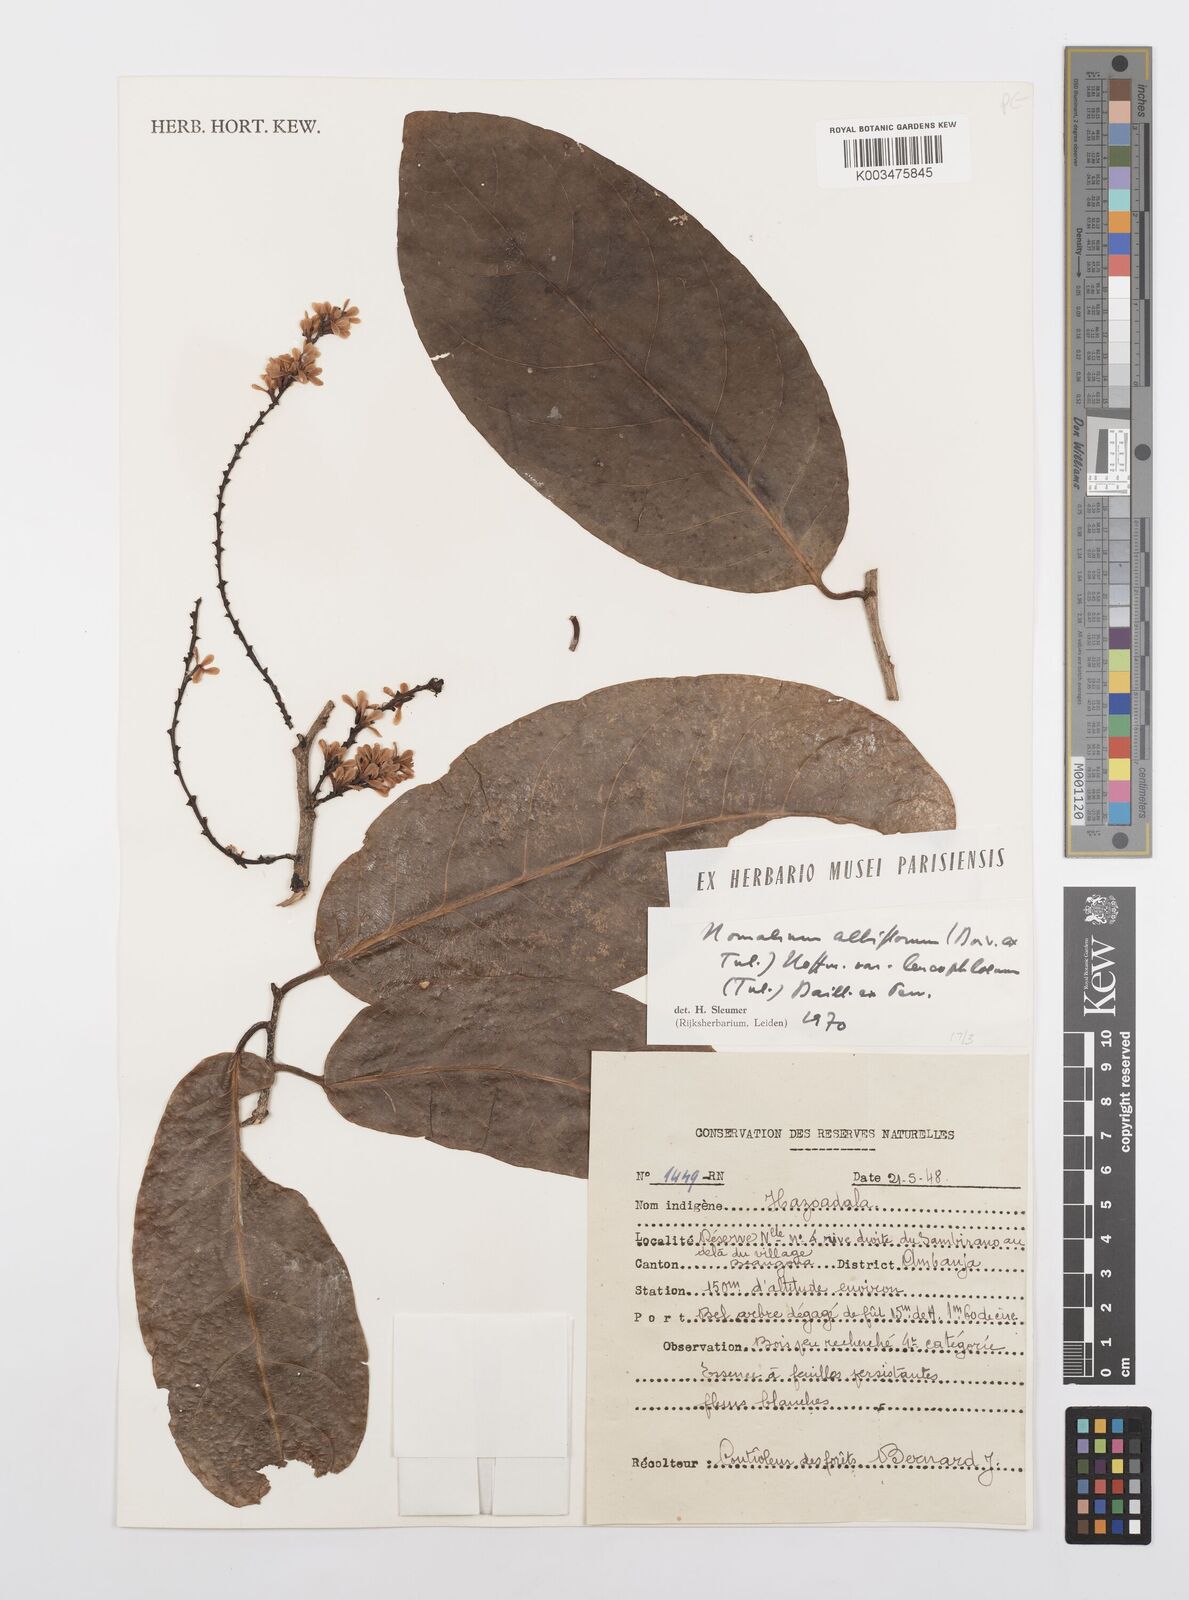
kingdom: Plantae
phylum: Tracheophyta
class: Liliopsida
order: Poales
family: Poaceae
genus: Imperata
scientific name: Imperata contracta
